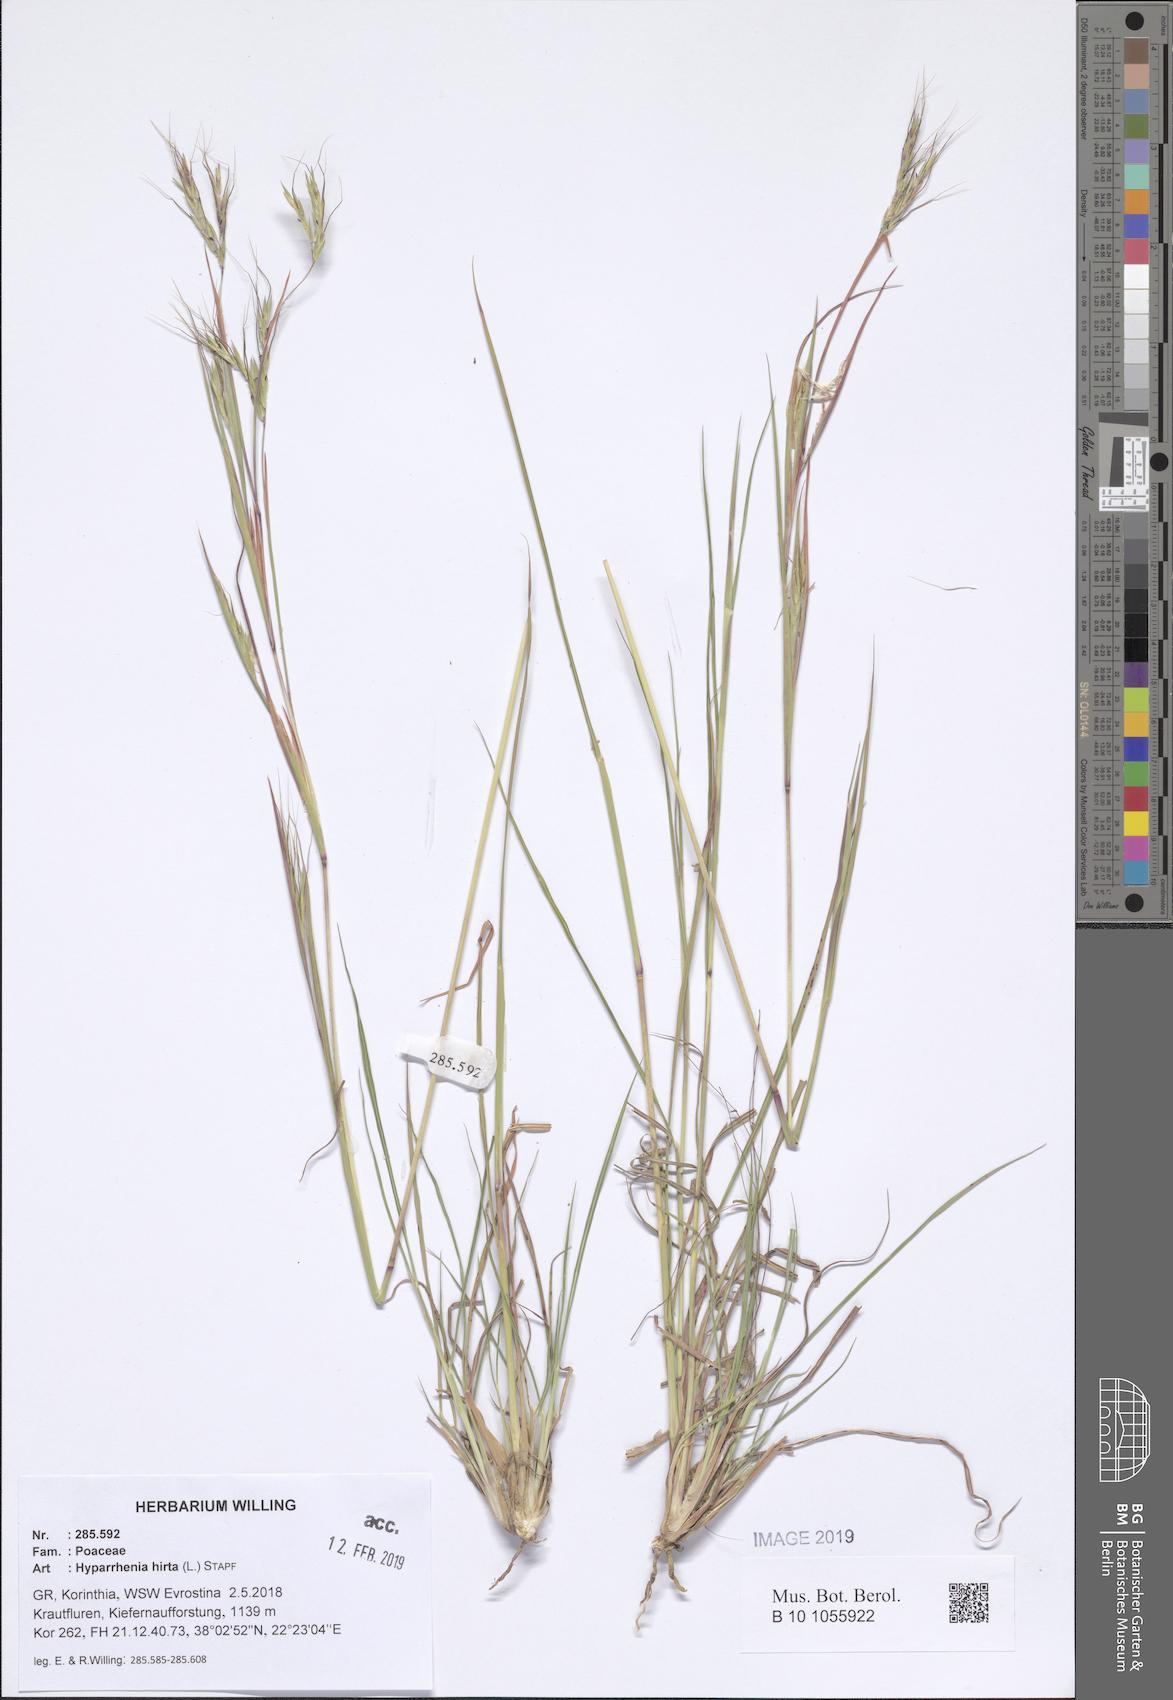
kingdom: Plantae
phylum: Tracheophyta
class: Liliopsida
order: Poales
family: Poaceae
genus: Hyparrhenia
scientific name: Hyparrhenia hirta
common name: Thatching grass
